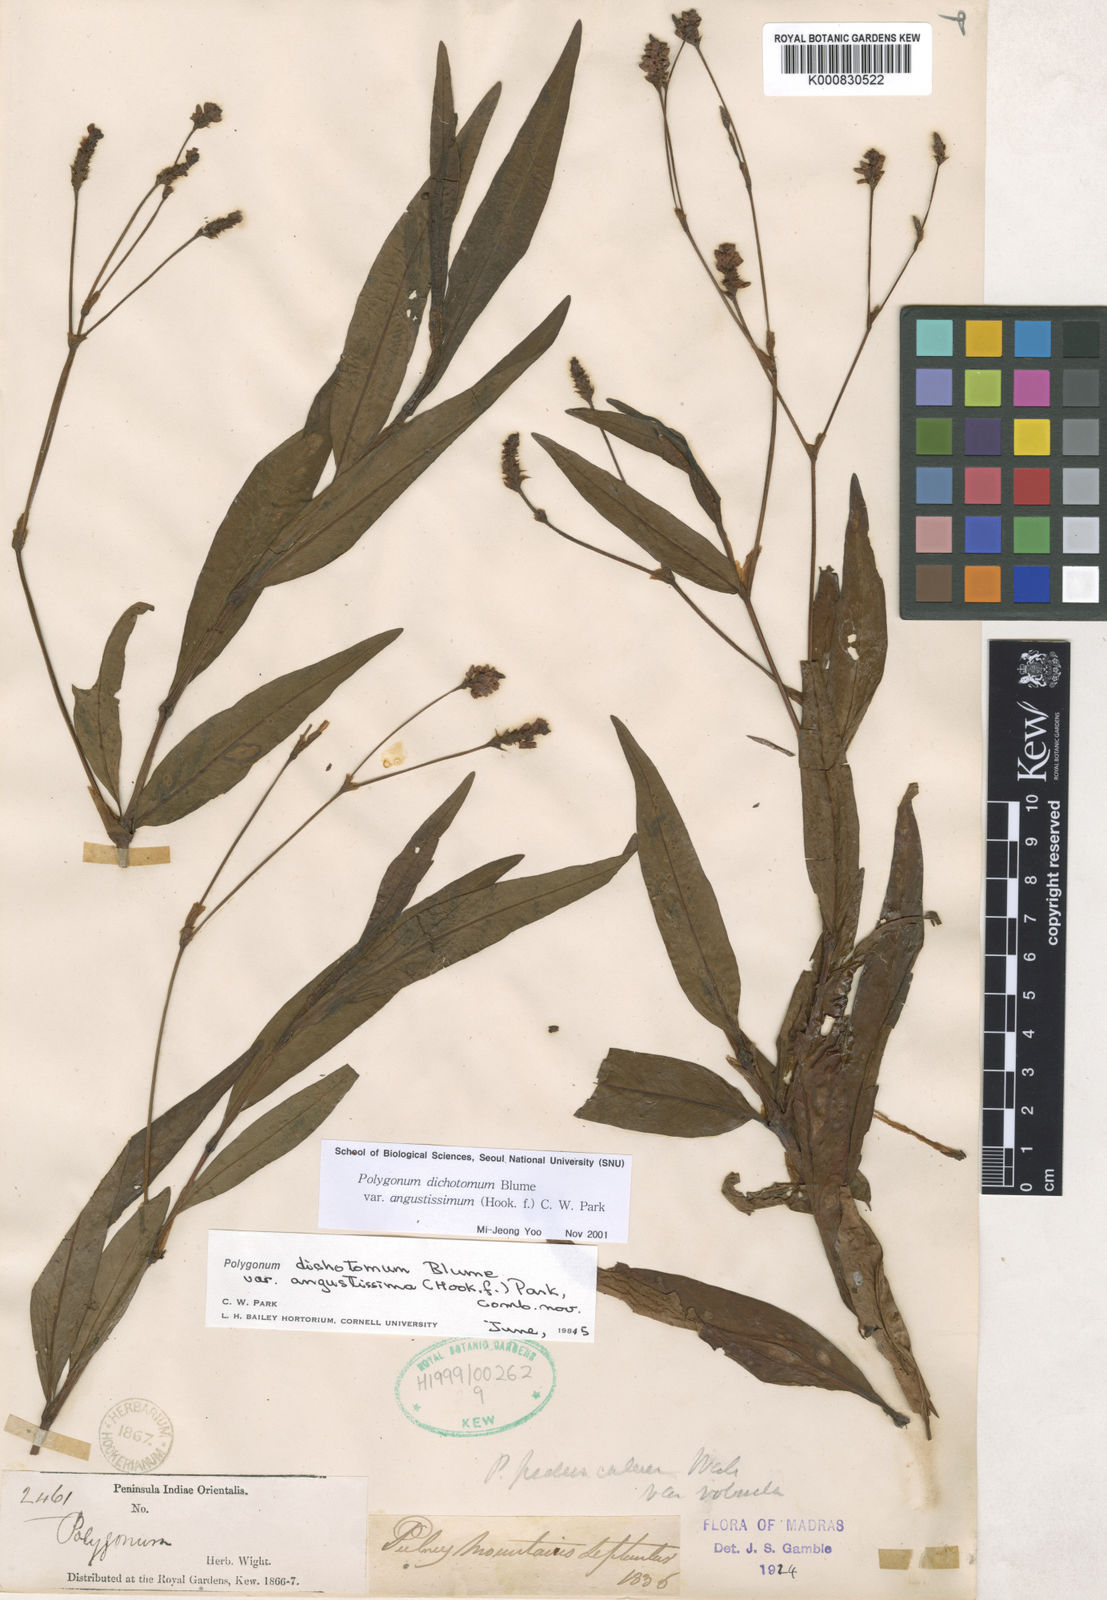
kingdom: Plantae
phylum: Tracheophyta
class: Magnoliopsida
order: Caryophyllales
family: Polygonaceae
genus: Persicaria
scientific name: Persicaria dichotoma
